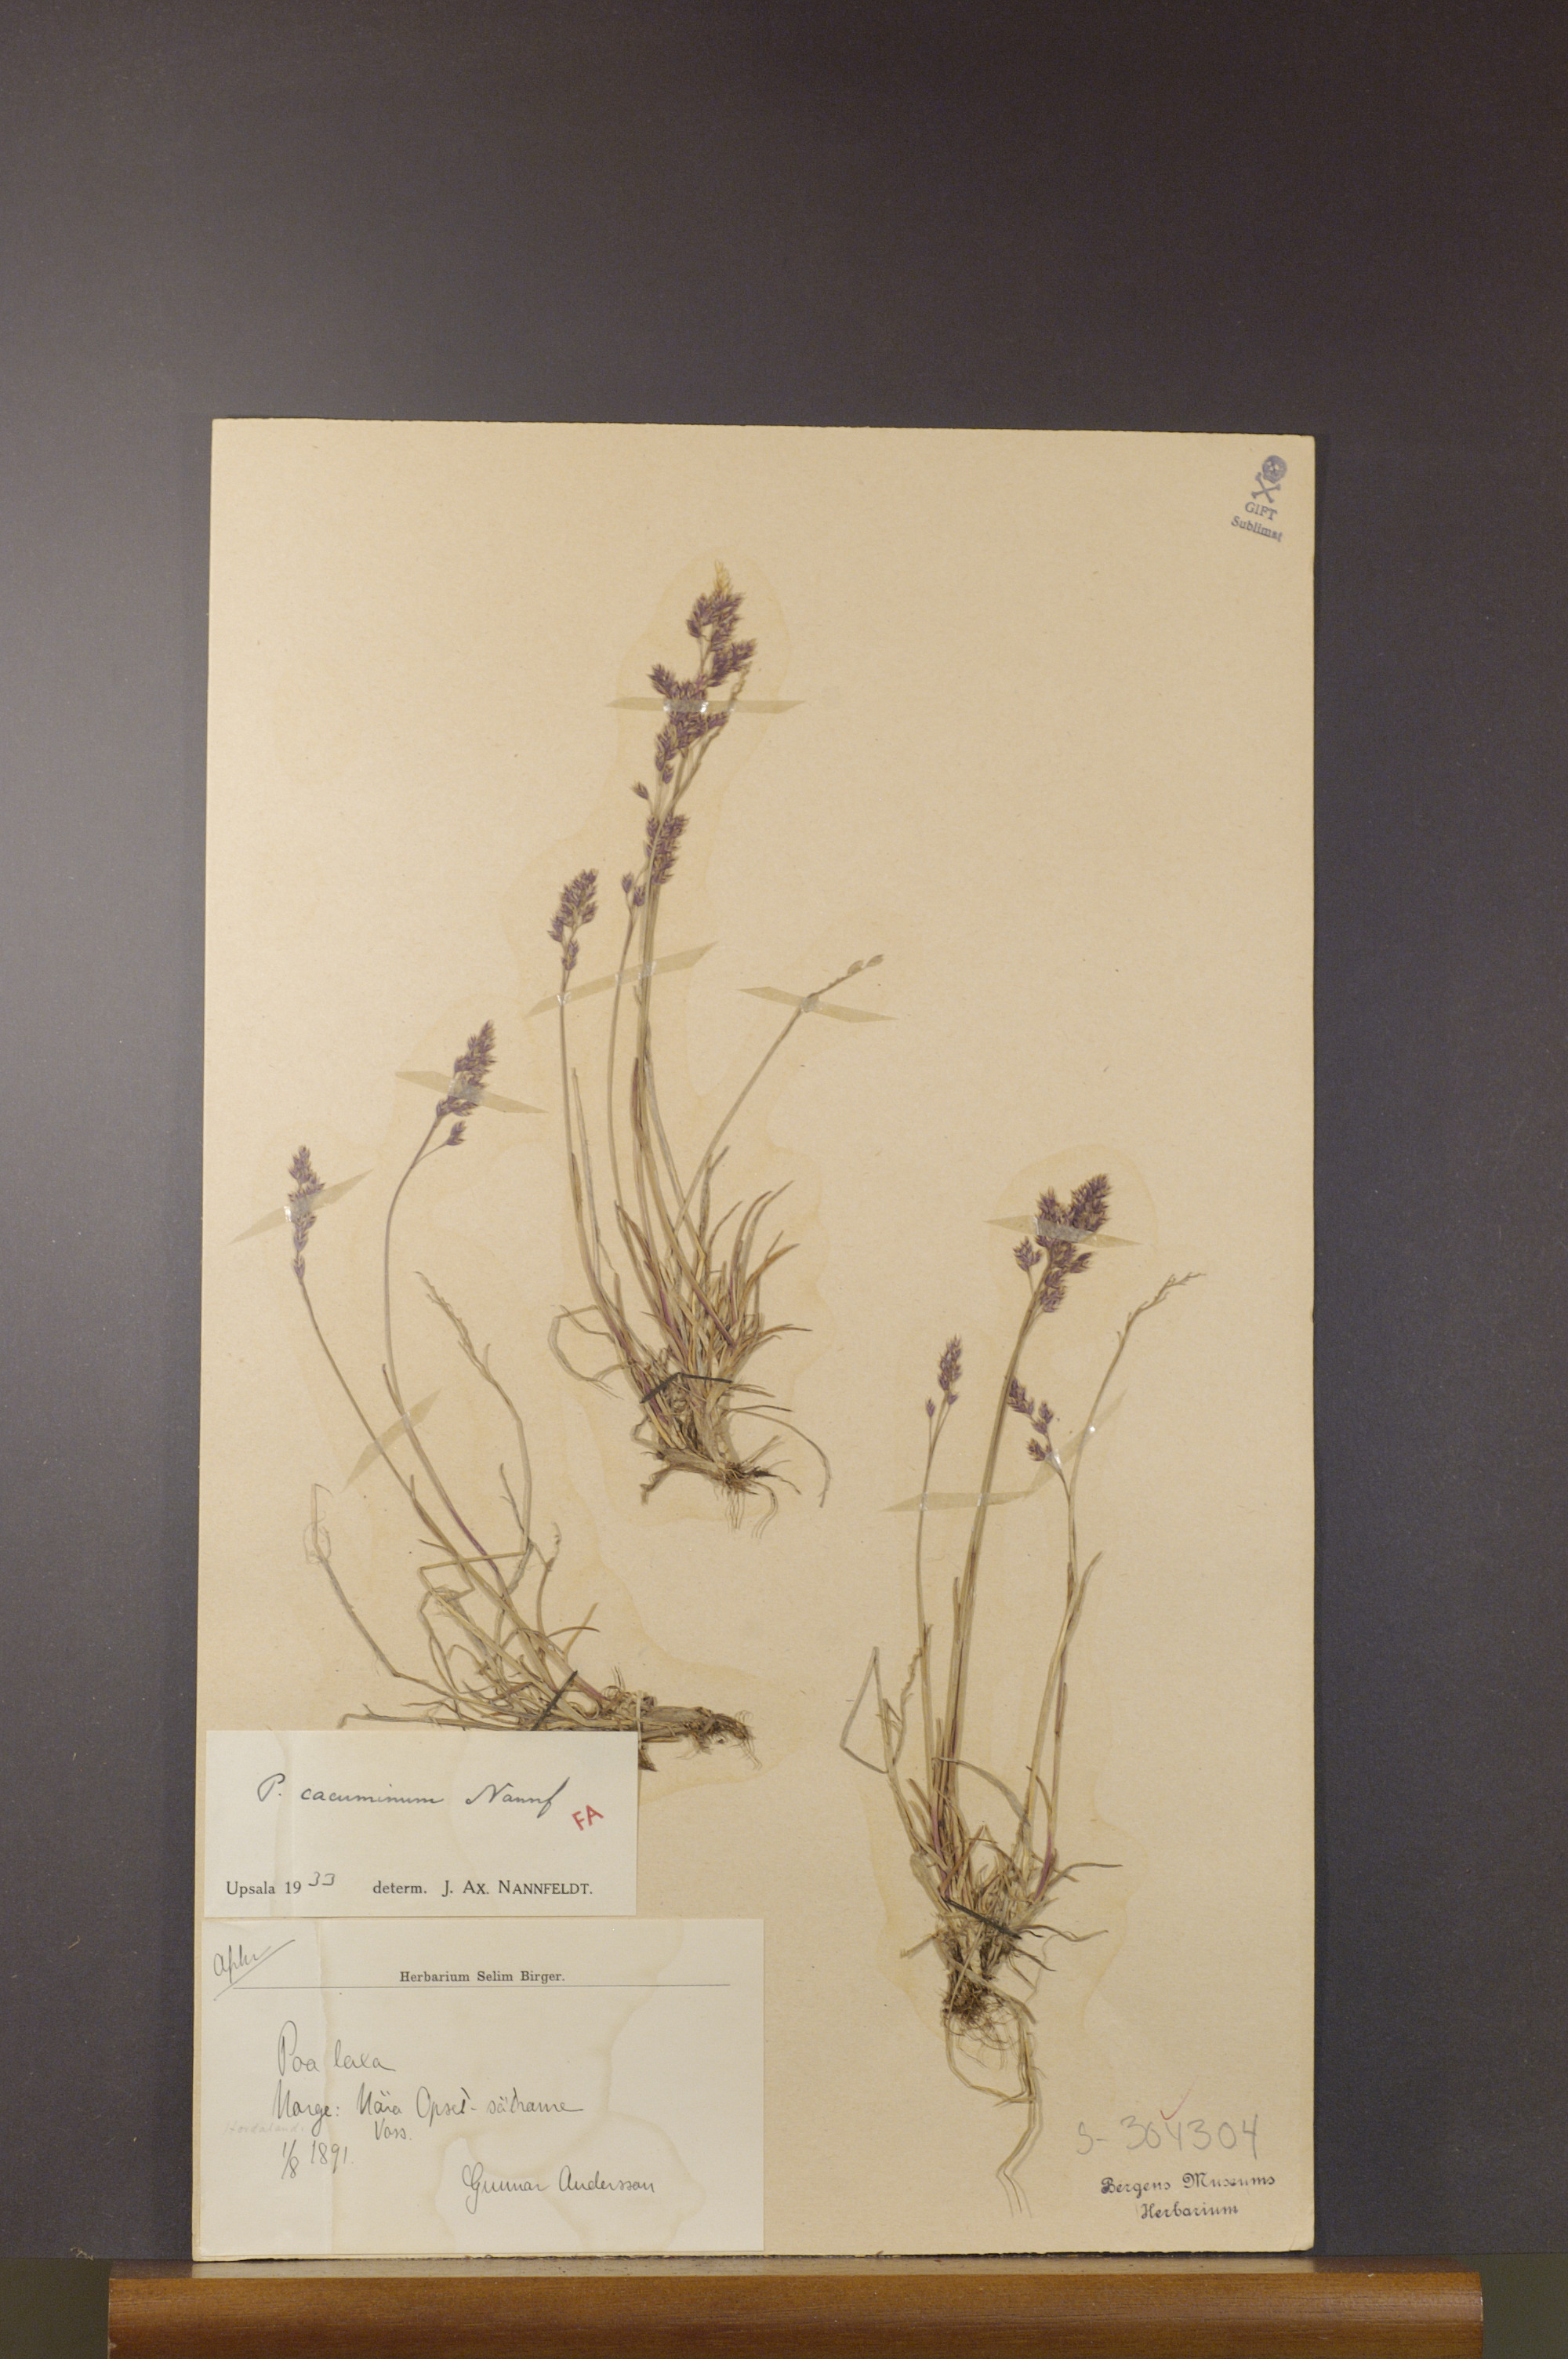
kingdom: Plantae
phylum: Tracheophyta
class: Liliopsida
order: Poales
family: Poaceae
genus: Poa
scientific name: Poa flexuosa
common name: Wavy meadow-grass
